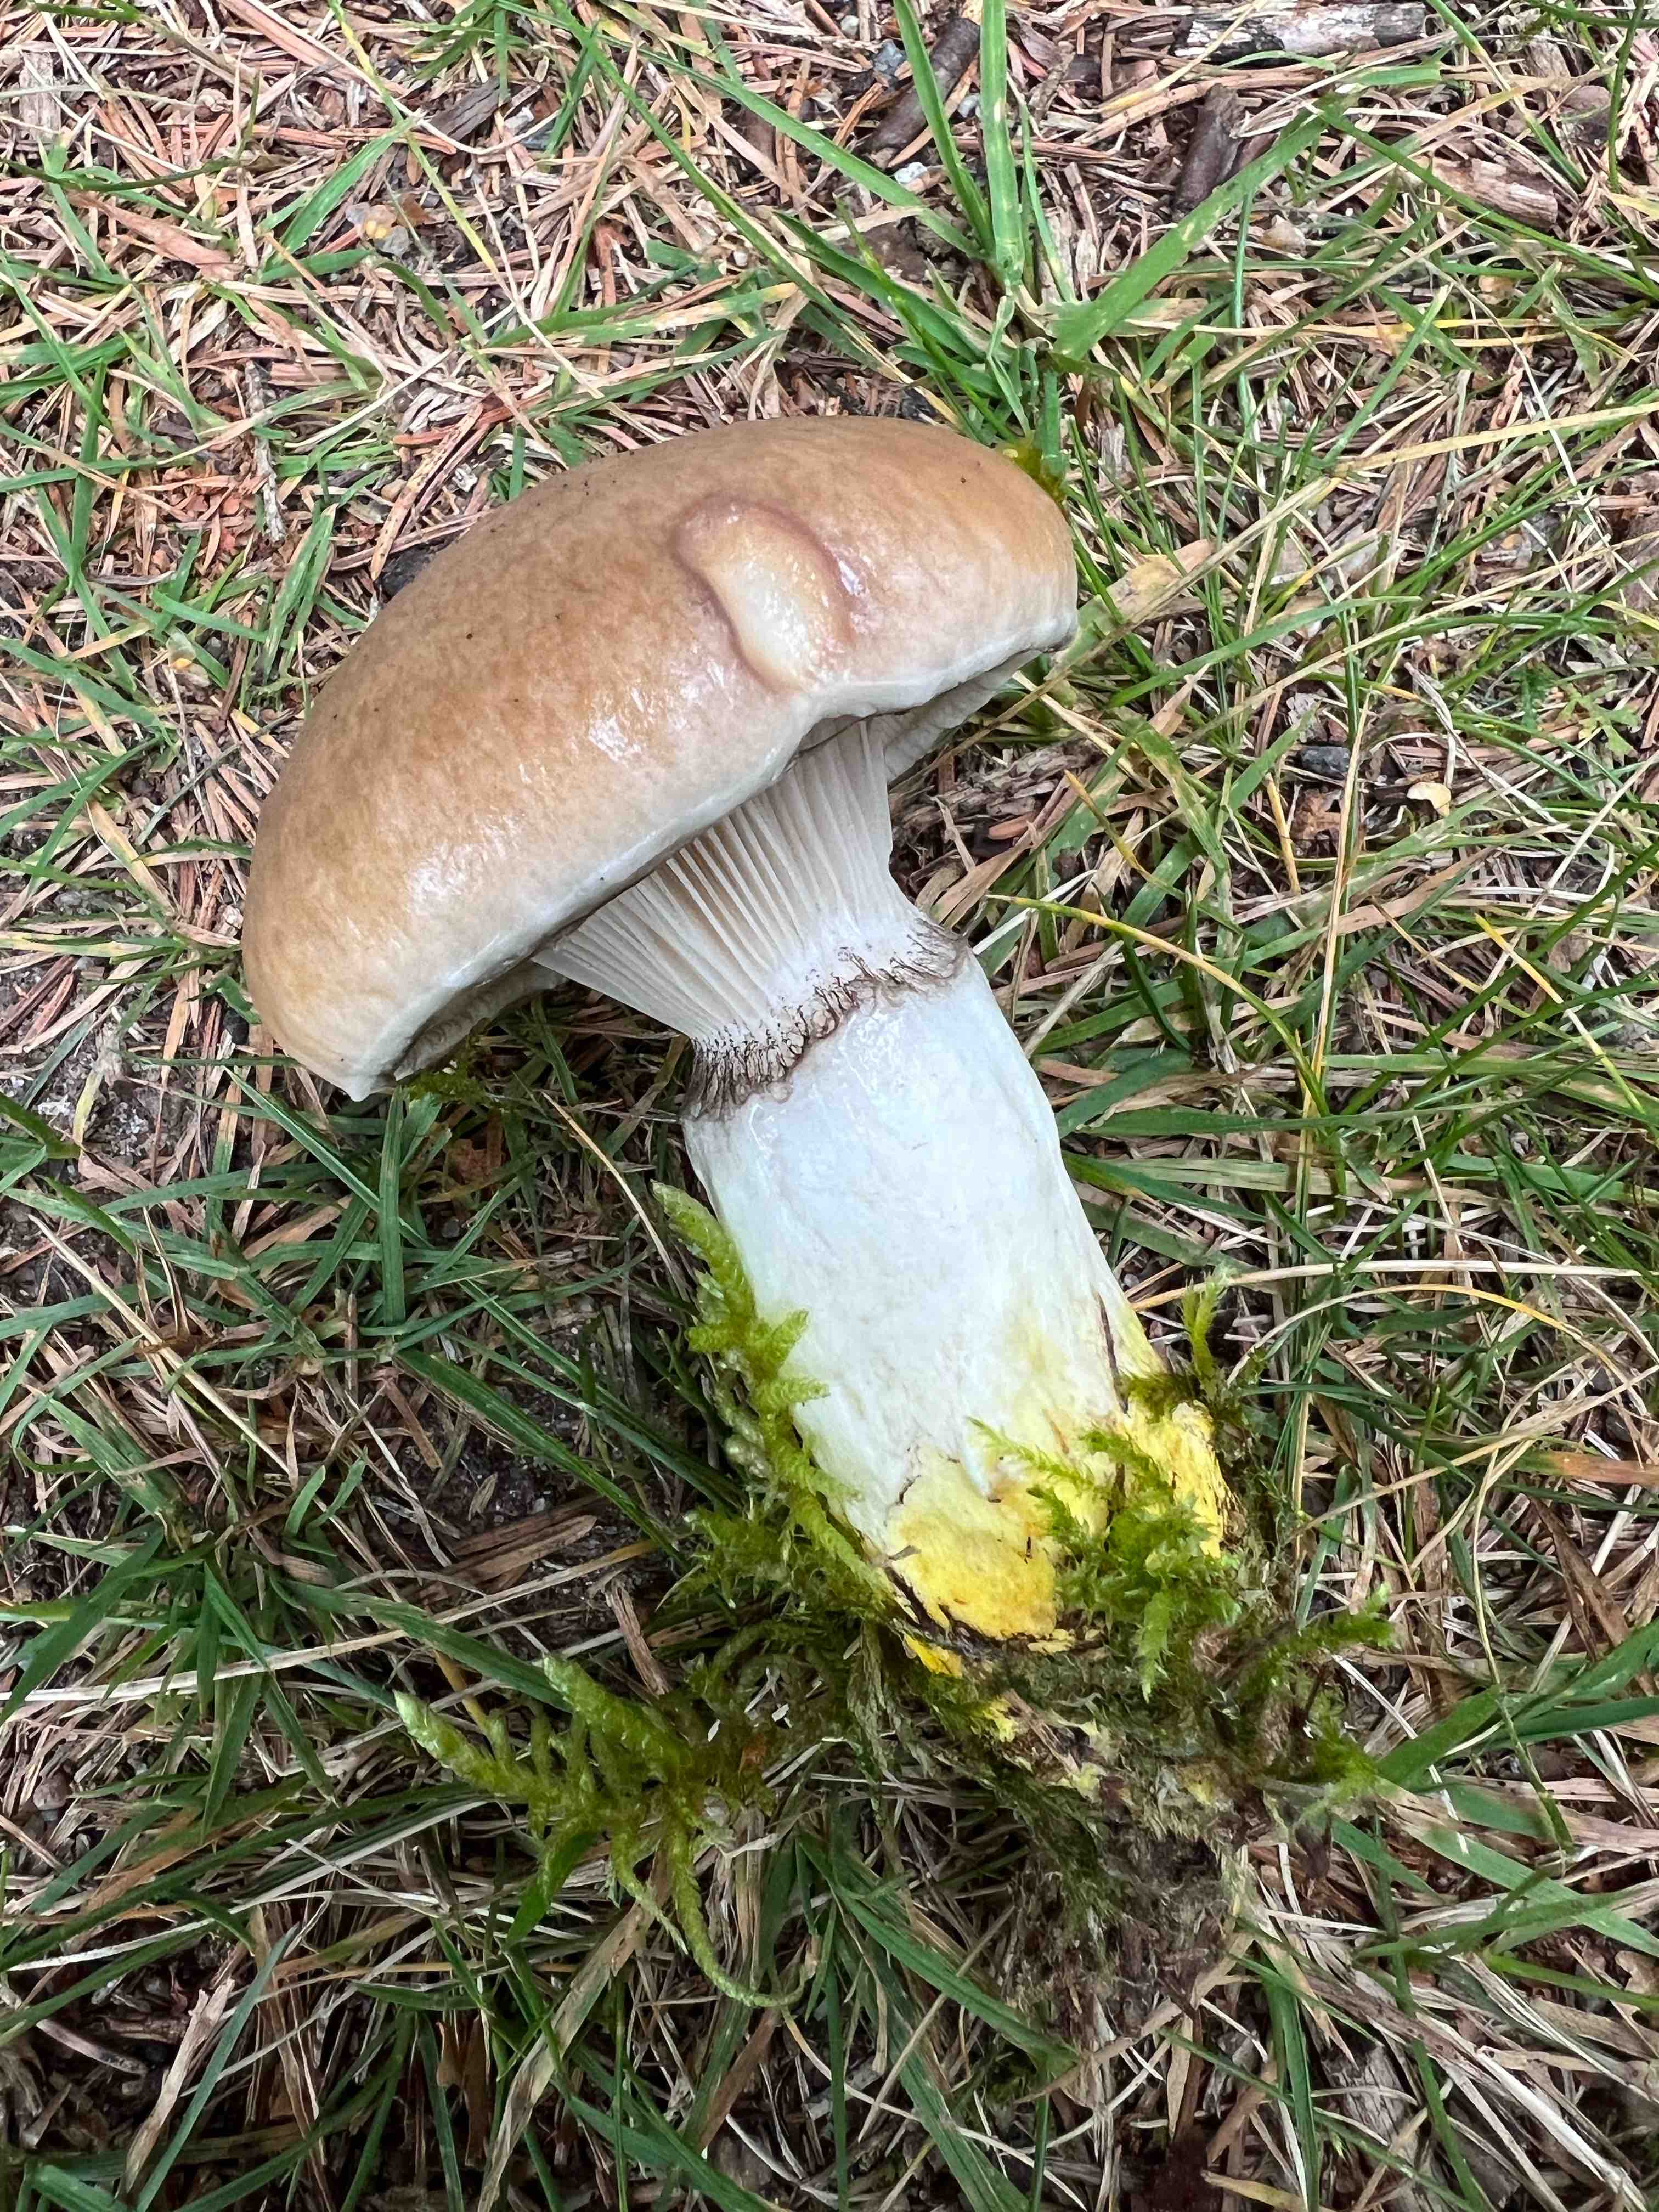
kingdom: Fungi
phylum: Basidiomycota
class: Agaricomycetes
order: Boletales
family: Gomphidiaceae
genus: Gomphidius
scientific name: Gomphidius glutinosus
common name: grå slimslør
